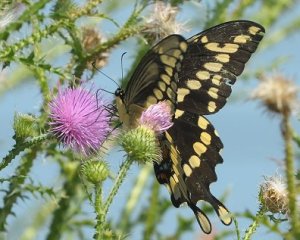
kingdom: Animalia
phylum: Arthropoda
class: Insecta
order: Lepidoptera
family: Papilionidae
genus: Papilio
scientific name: Papilio cresphontes
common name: Eastern Giant Swallowtail
